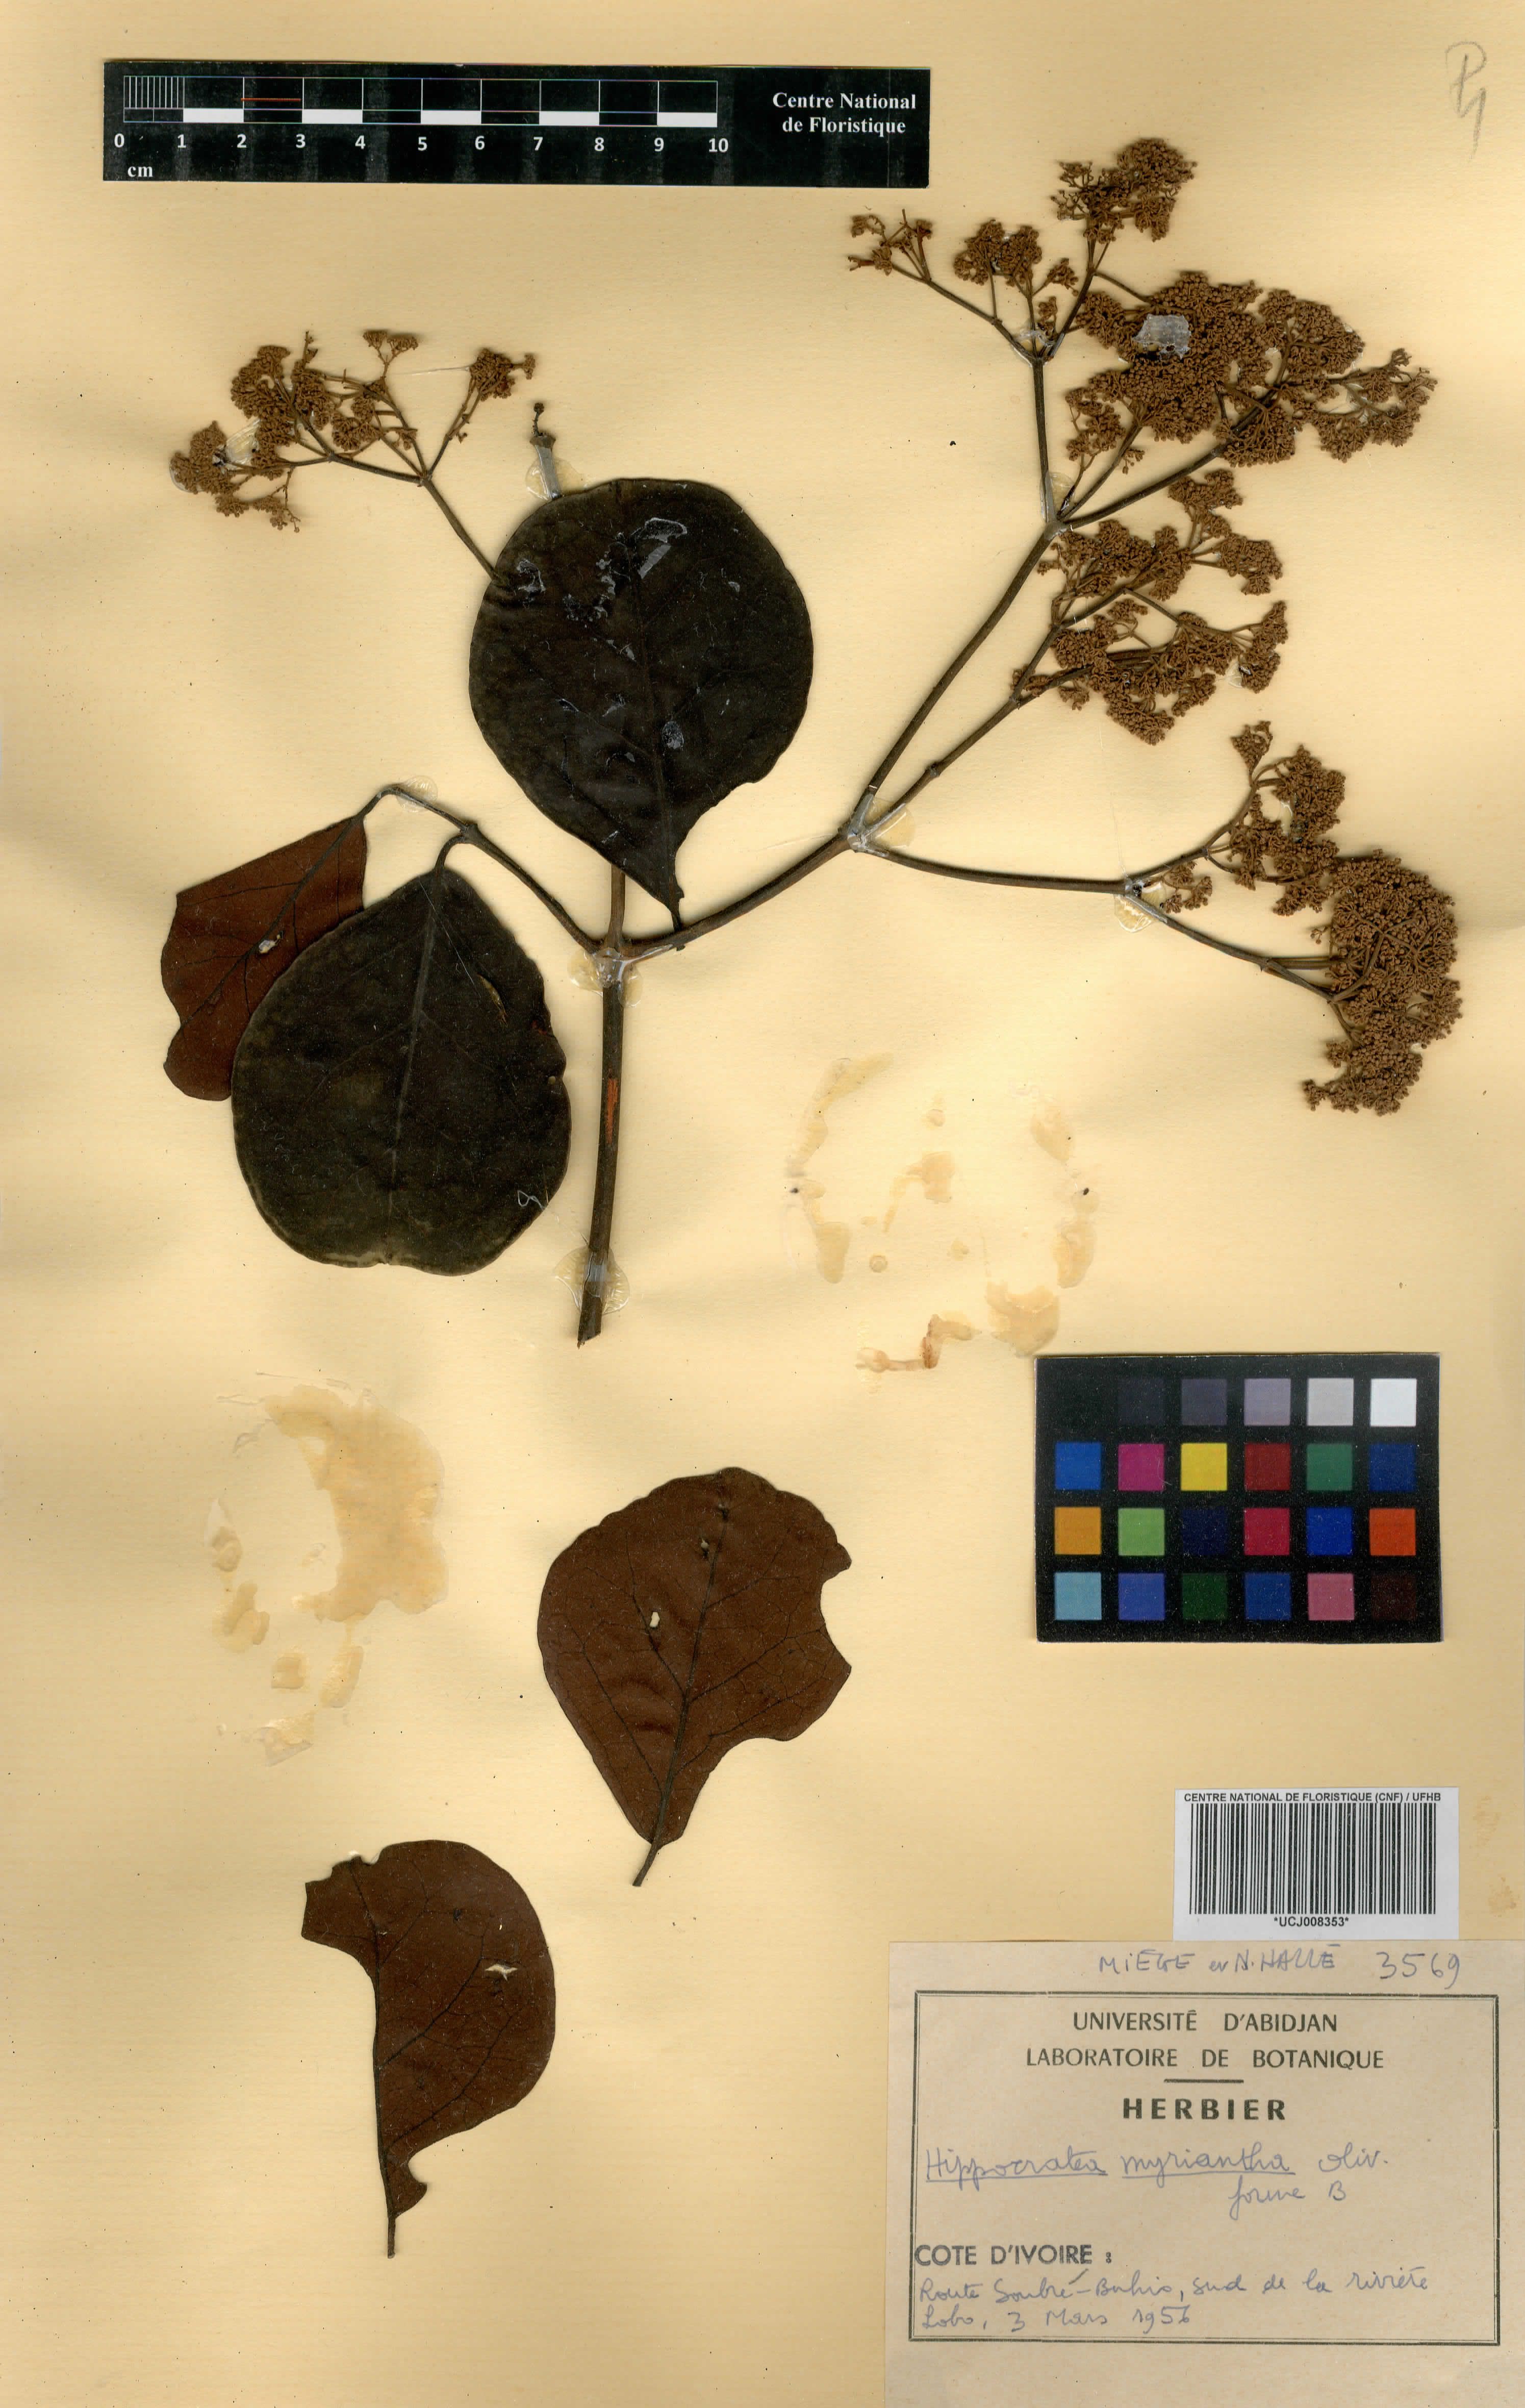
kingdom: Plantae
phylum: Tracheophyta
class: Magnoliopsida
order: Celastrales
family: Celastraceae
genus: Hippocratea
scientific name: Hippocratea myriantha
